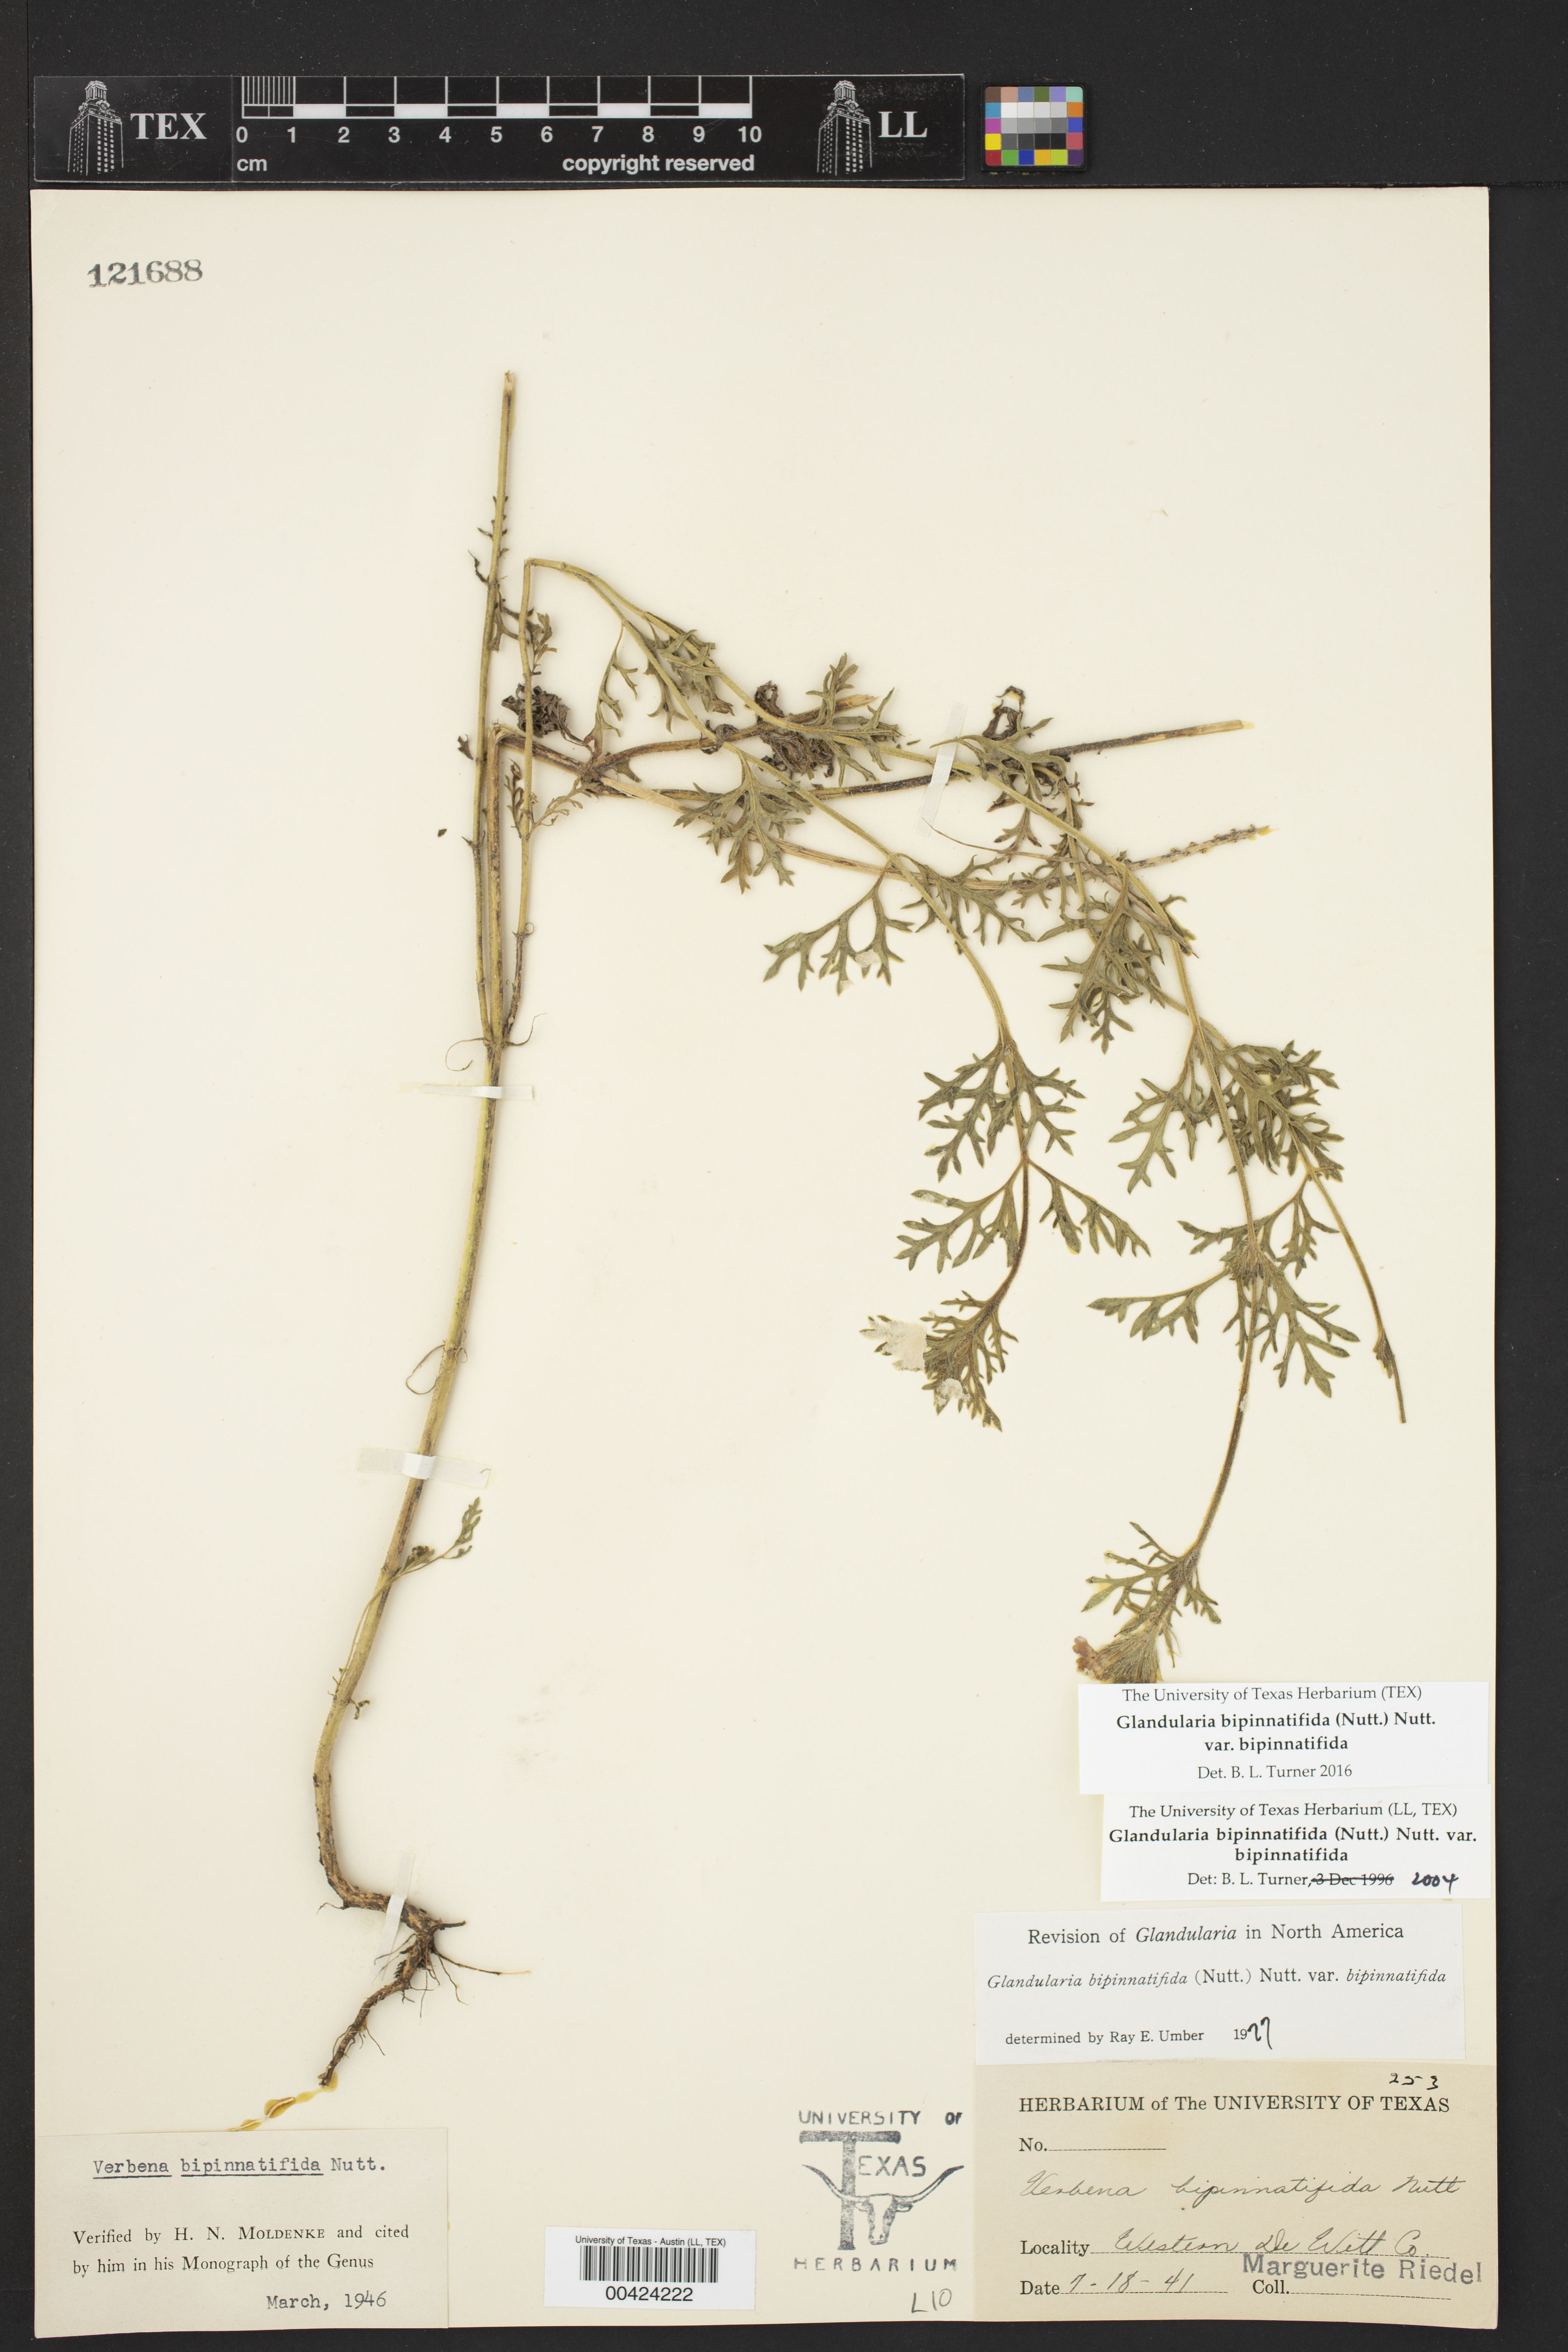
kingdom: Plantae
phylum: Tracheophyta
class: Magnoliopsida
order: Lamiales
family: Verbenaceae
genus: Verbena
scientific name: Verbena bipinnatifida
